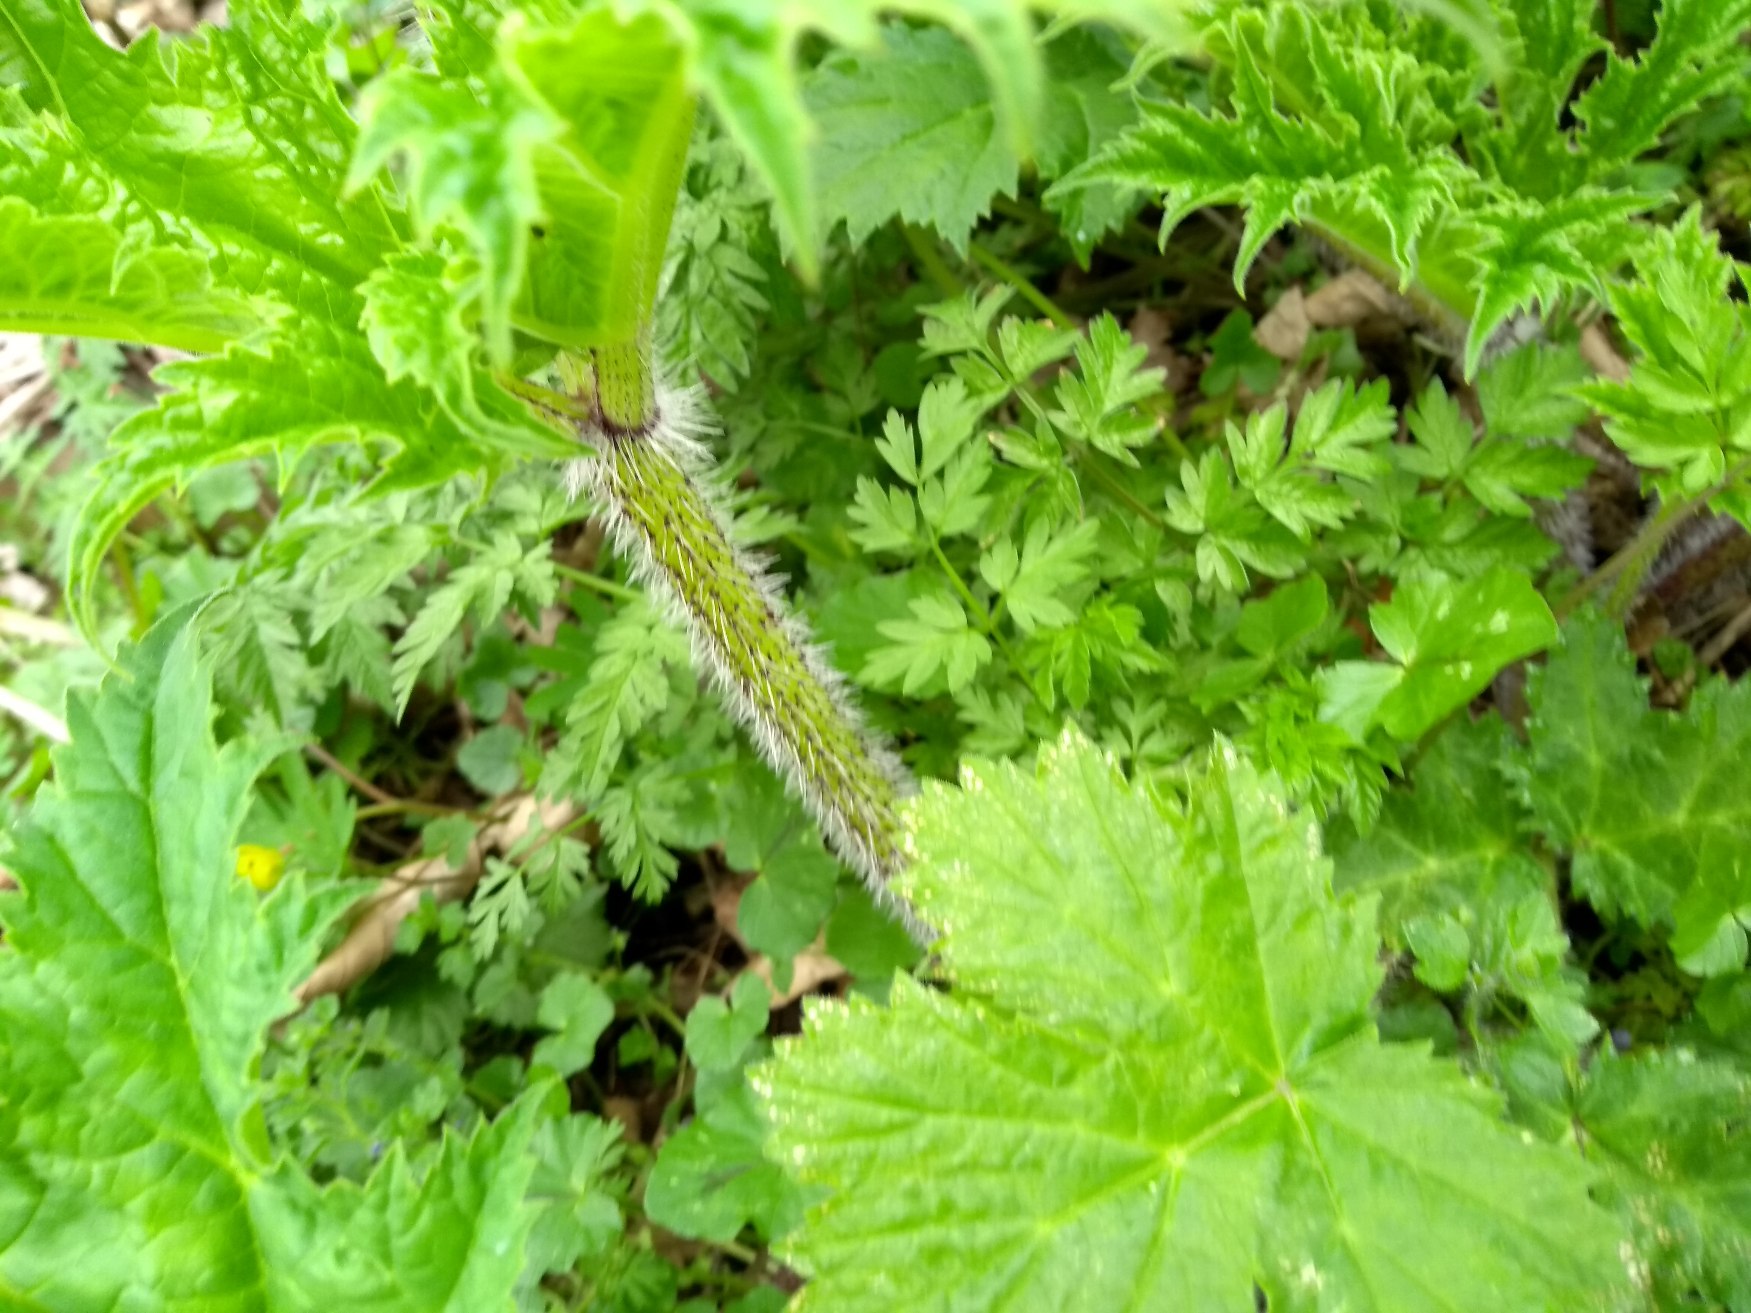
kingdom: Plantae
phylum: Tracheophyta
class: Magnoliopsida
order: Apiales
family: Apiaceae
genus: Heracleum
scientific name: Heracleum mantegazzianum
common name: Kæmpe-bjørneklo
